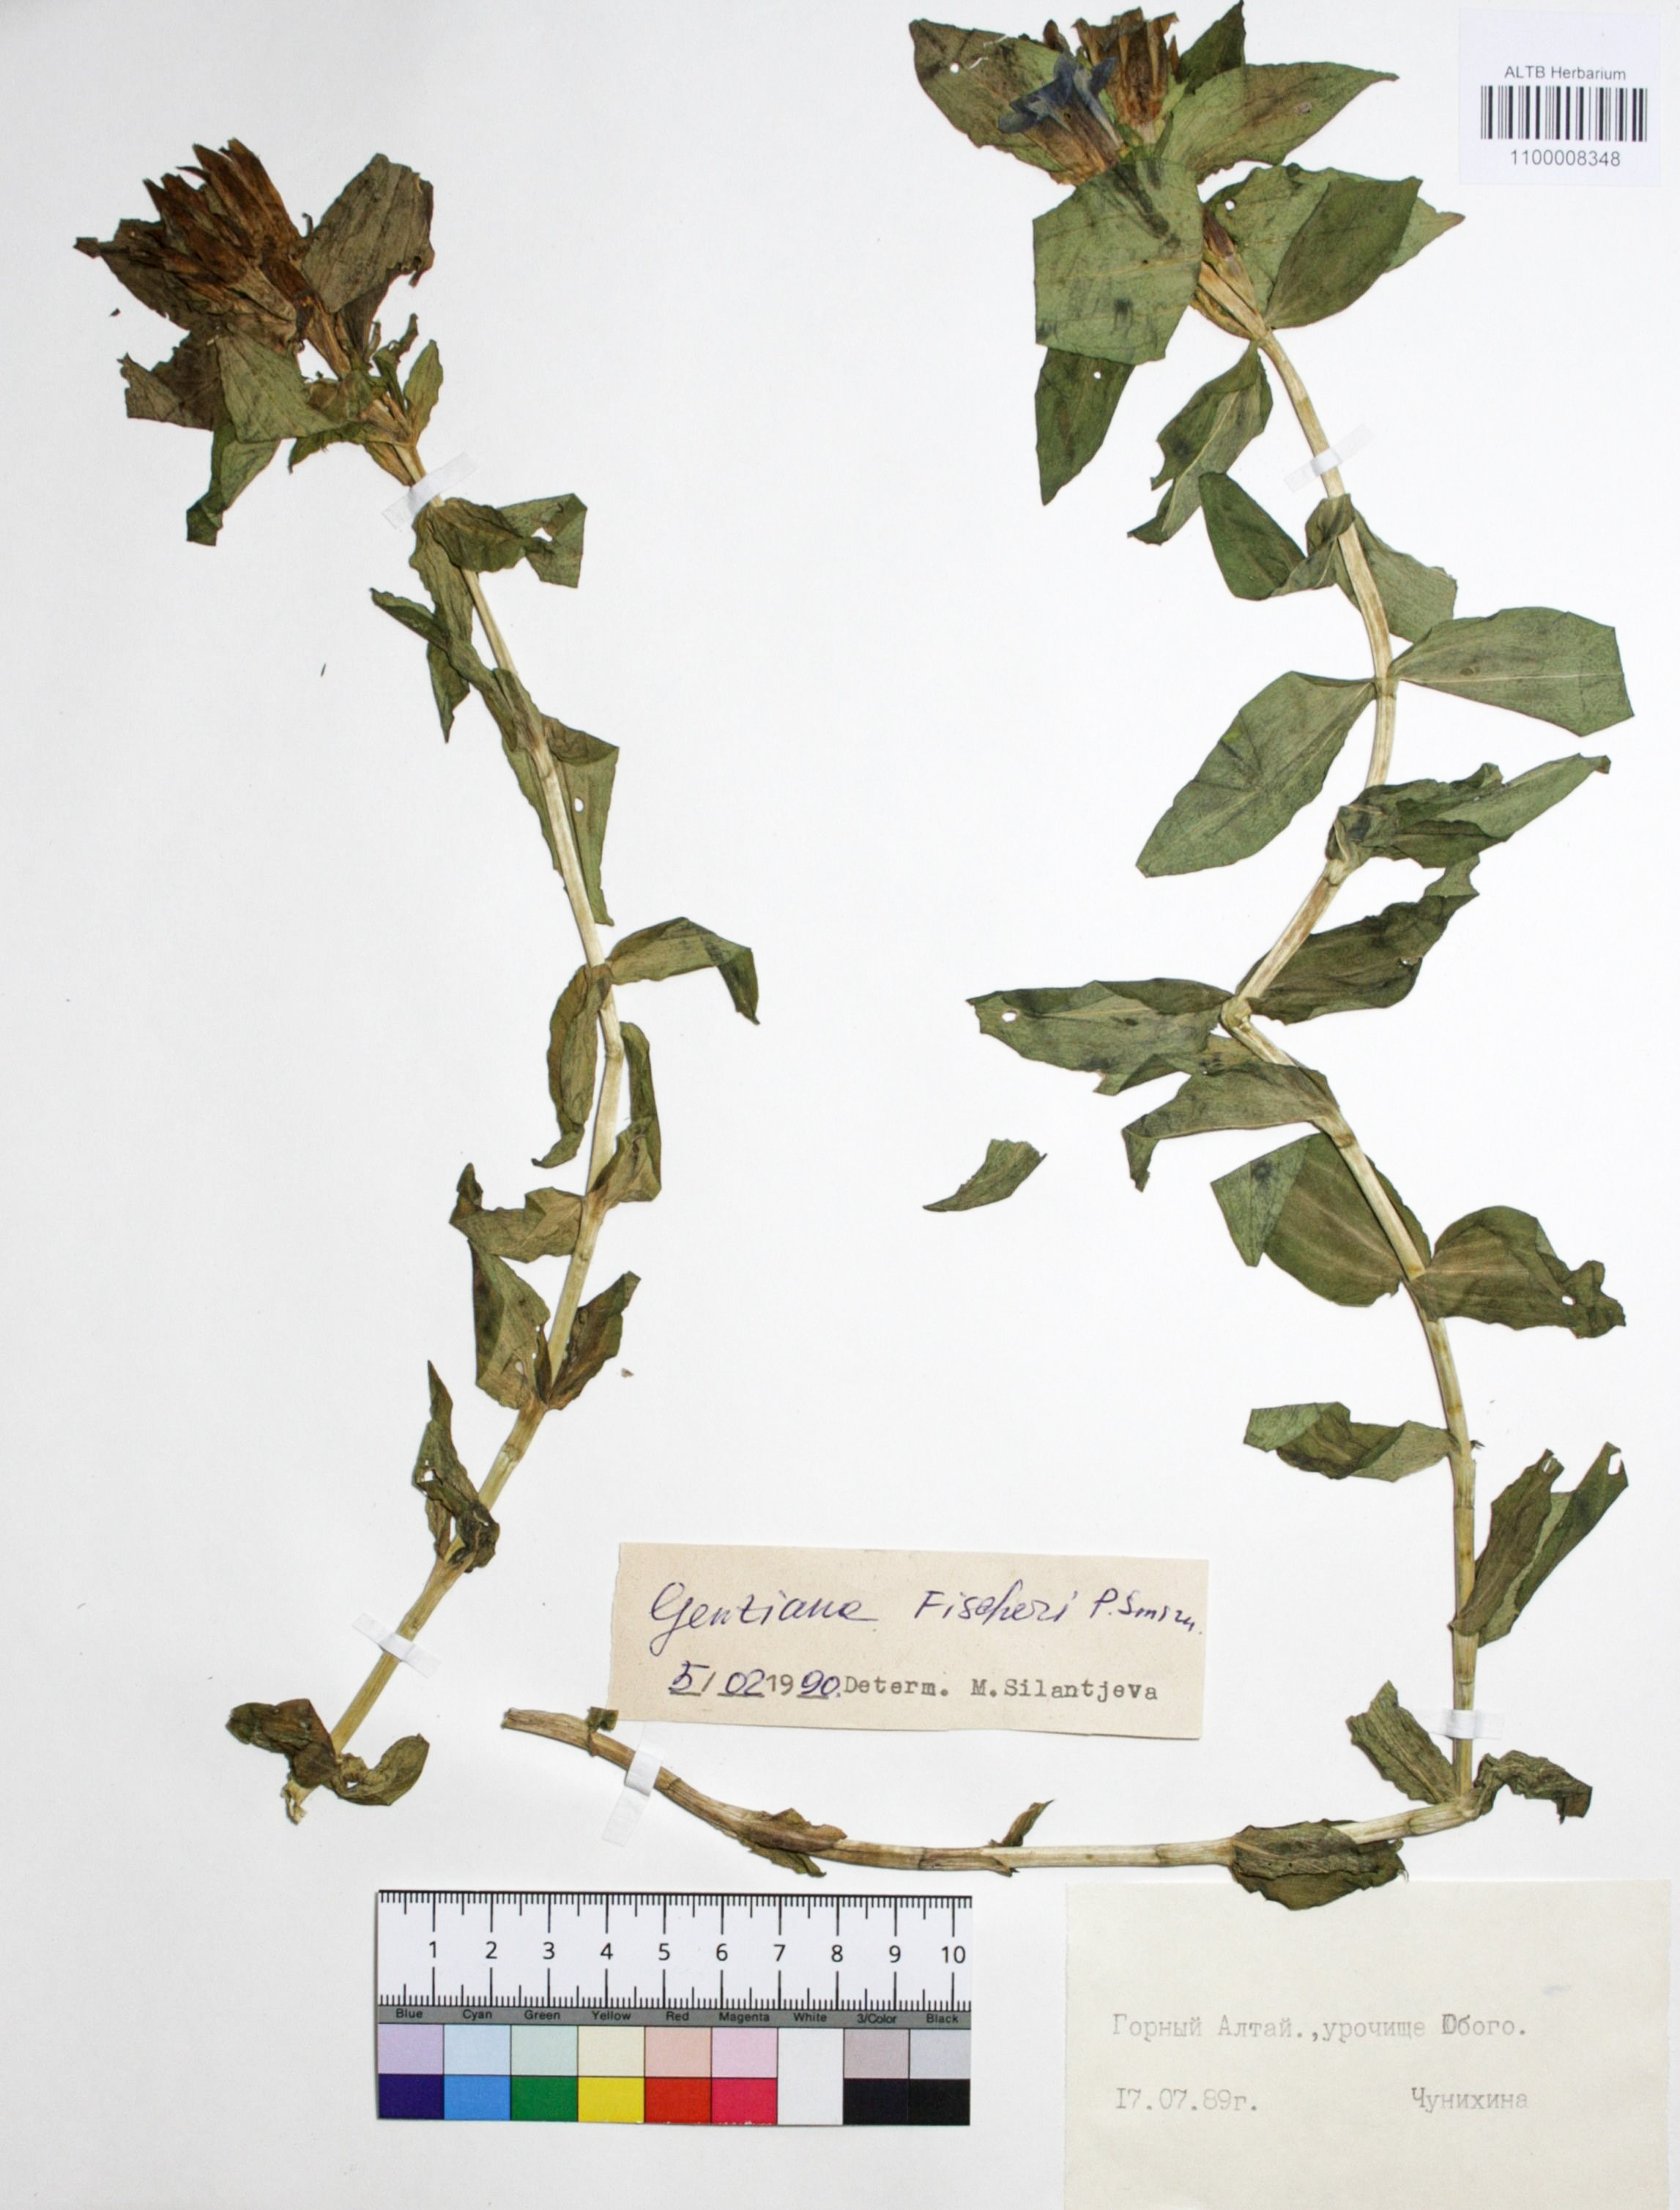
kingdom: Plantae
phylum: Tracheophyta
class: Magnoliopsida
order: Gentianales
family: Gentianaceae
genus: Gentiana
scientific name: Gentiana dschungarica
